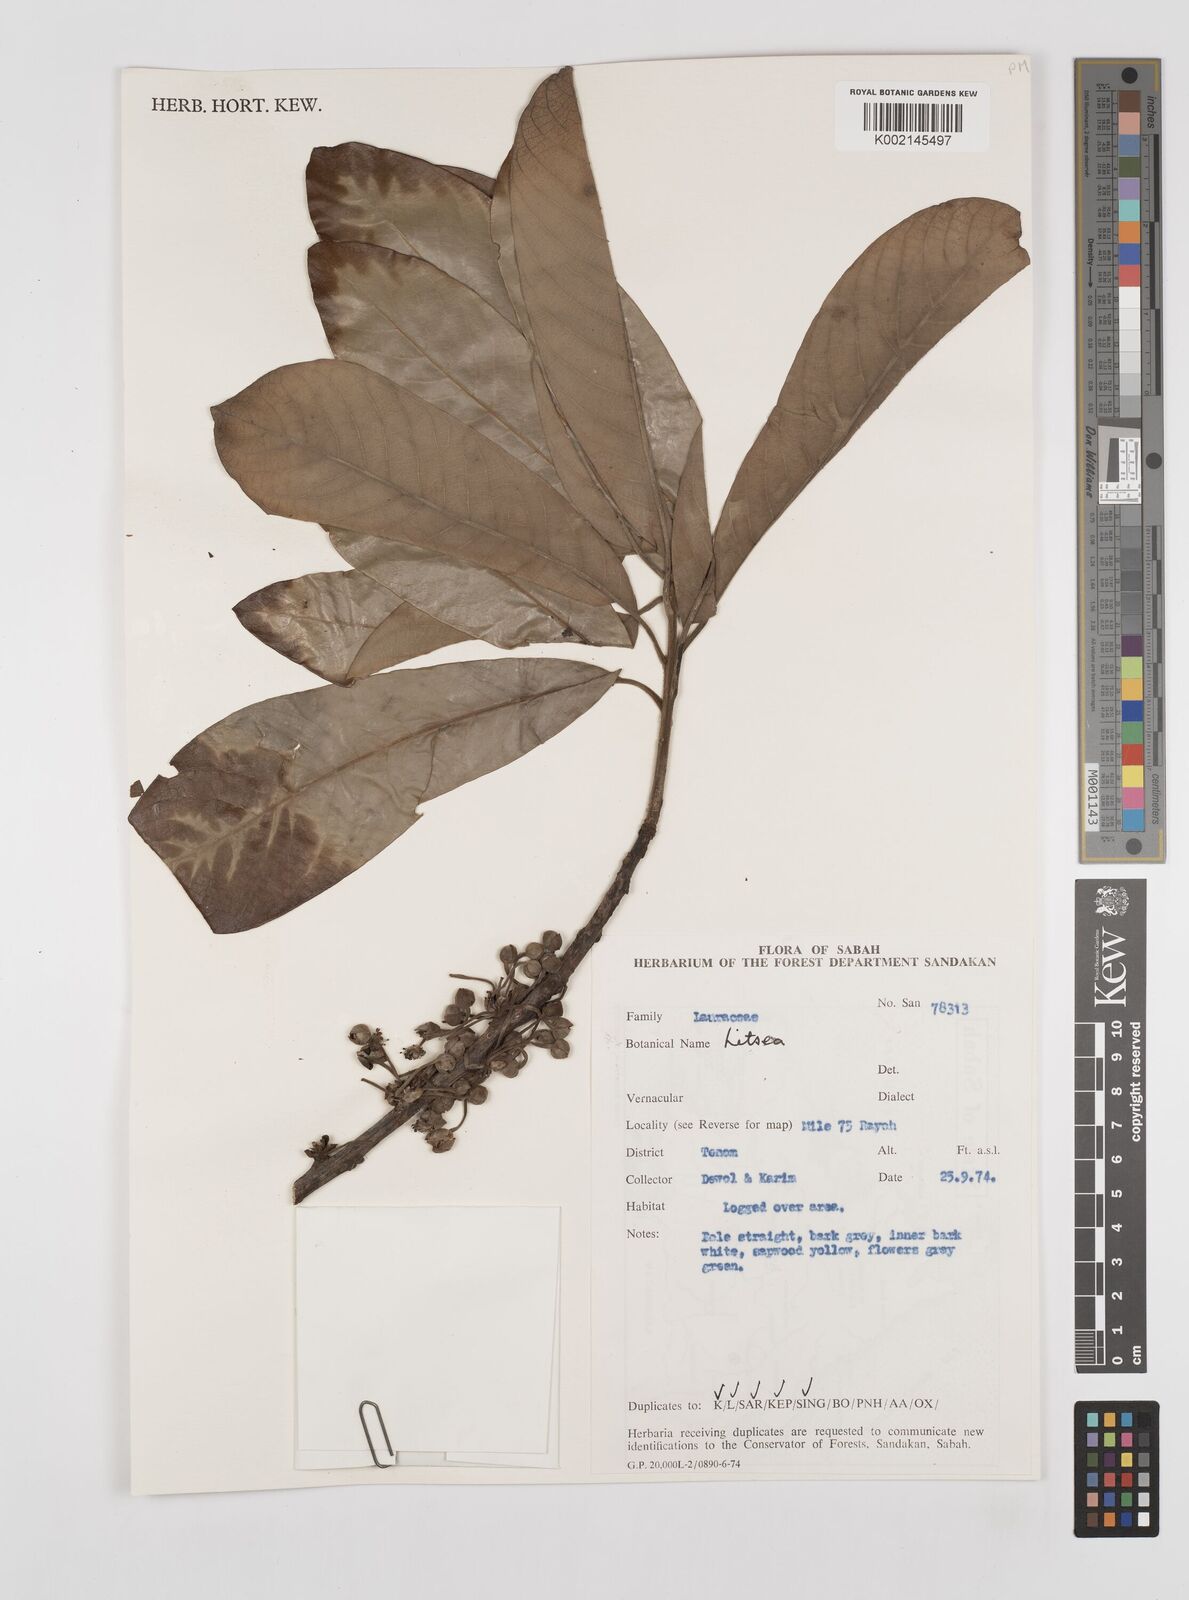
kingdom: Plantae
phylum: Tracheophyta
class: Magnoliopsida
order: Laurales
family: Lauraceae
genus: Litsea
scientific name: Litsea
